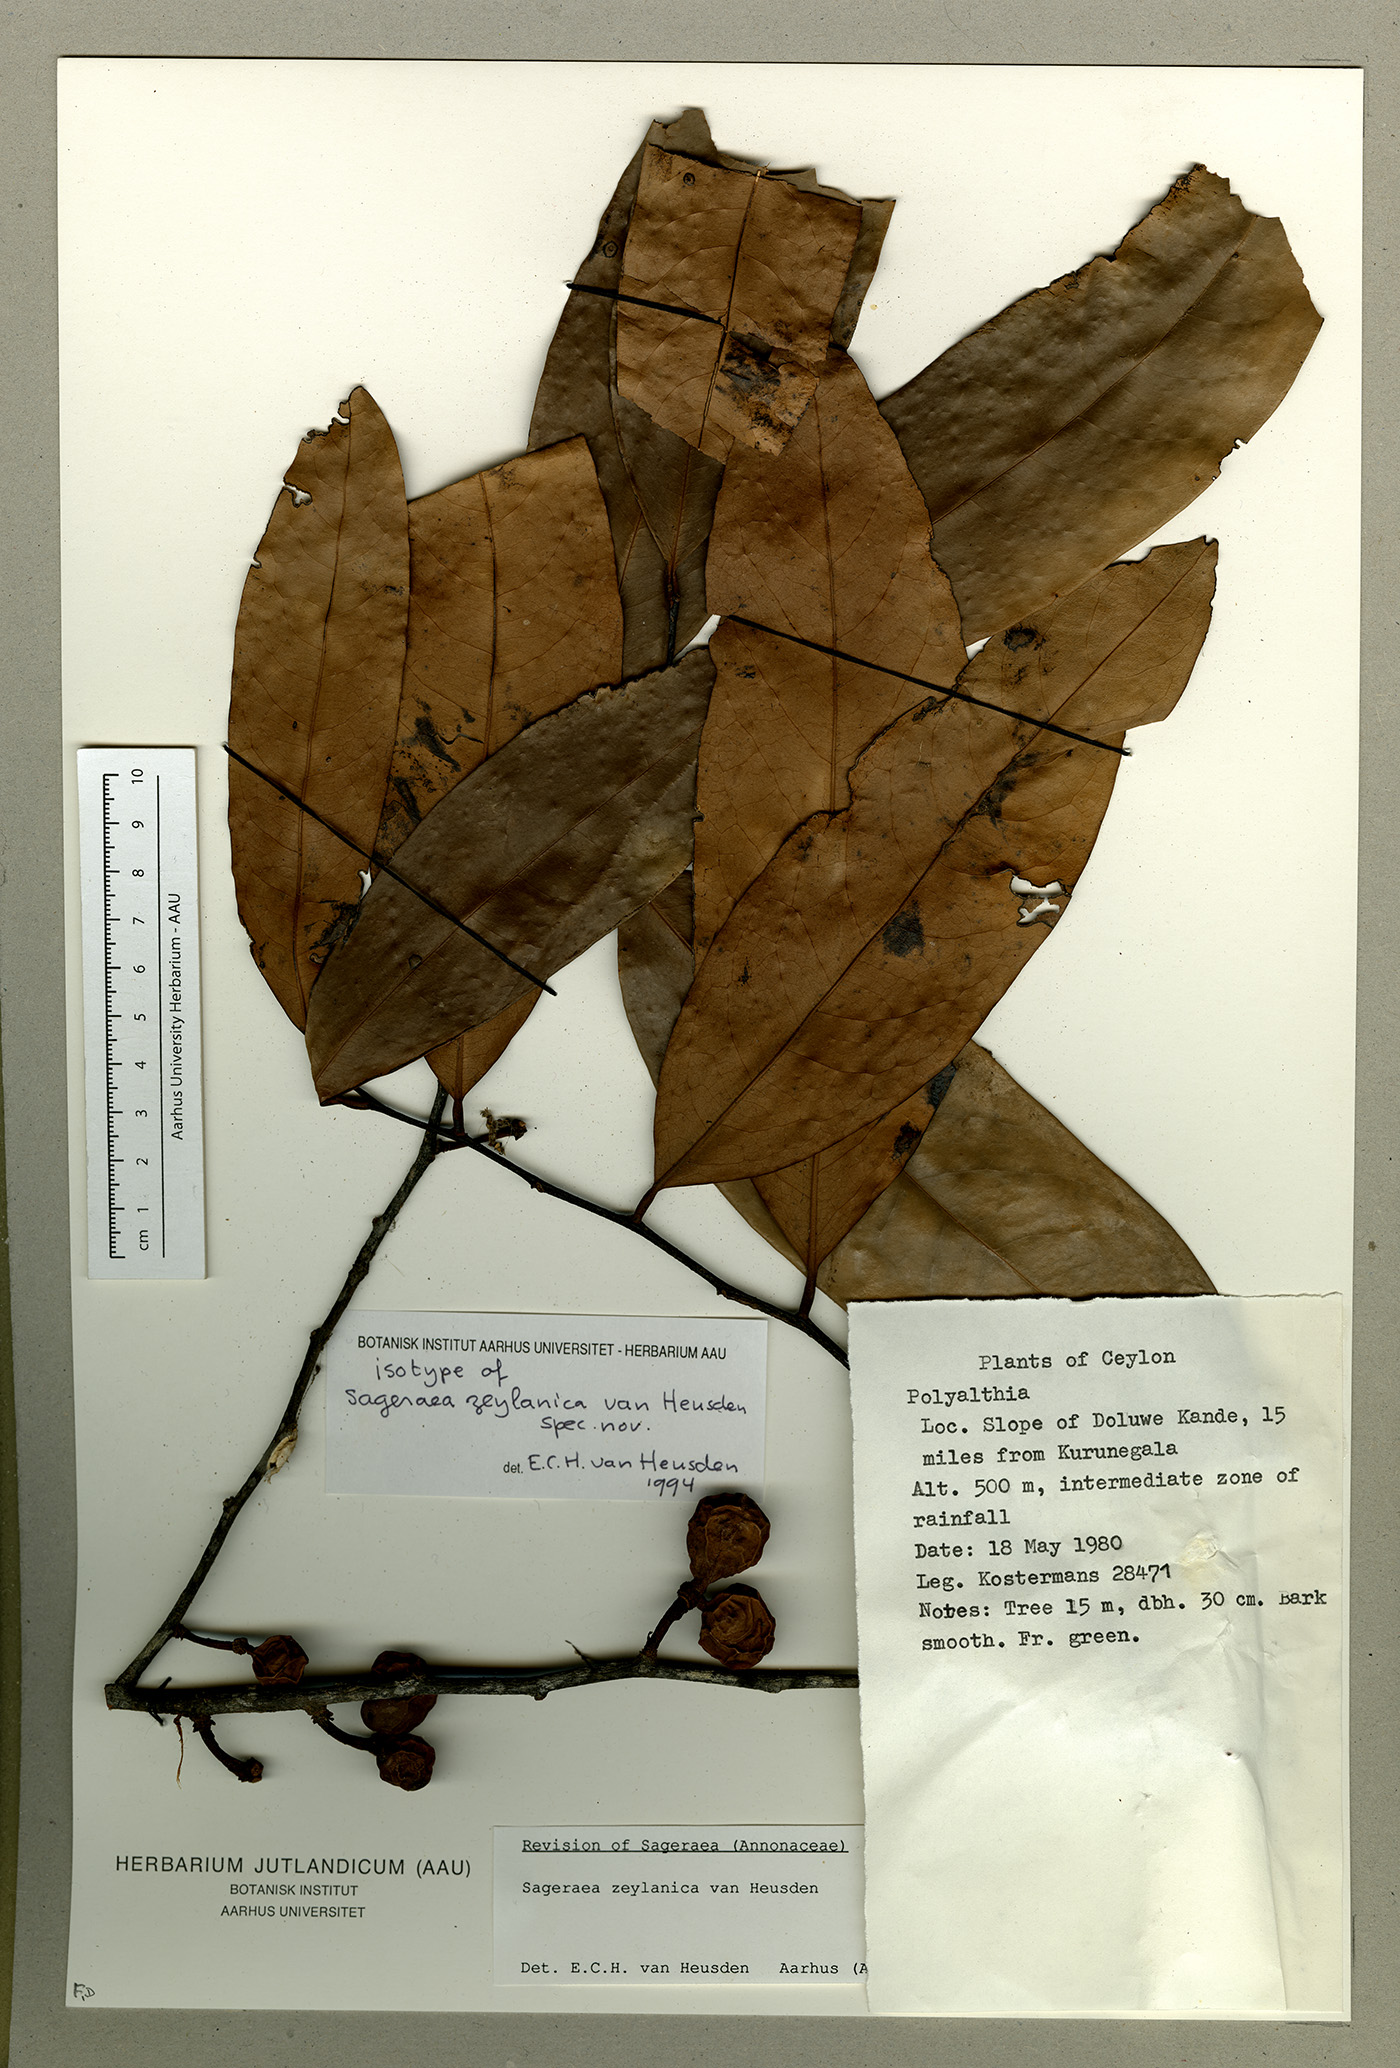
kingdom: Plantae
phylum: Tracheophyta
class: Magnoliopsida
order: Magnoliales
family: Annonaceae
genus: Sageraea
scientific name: Sageraea zeylanica
